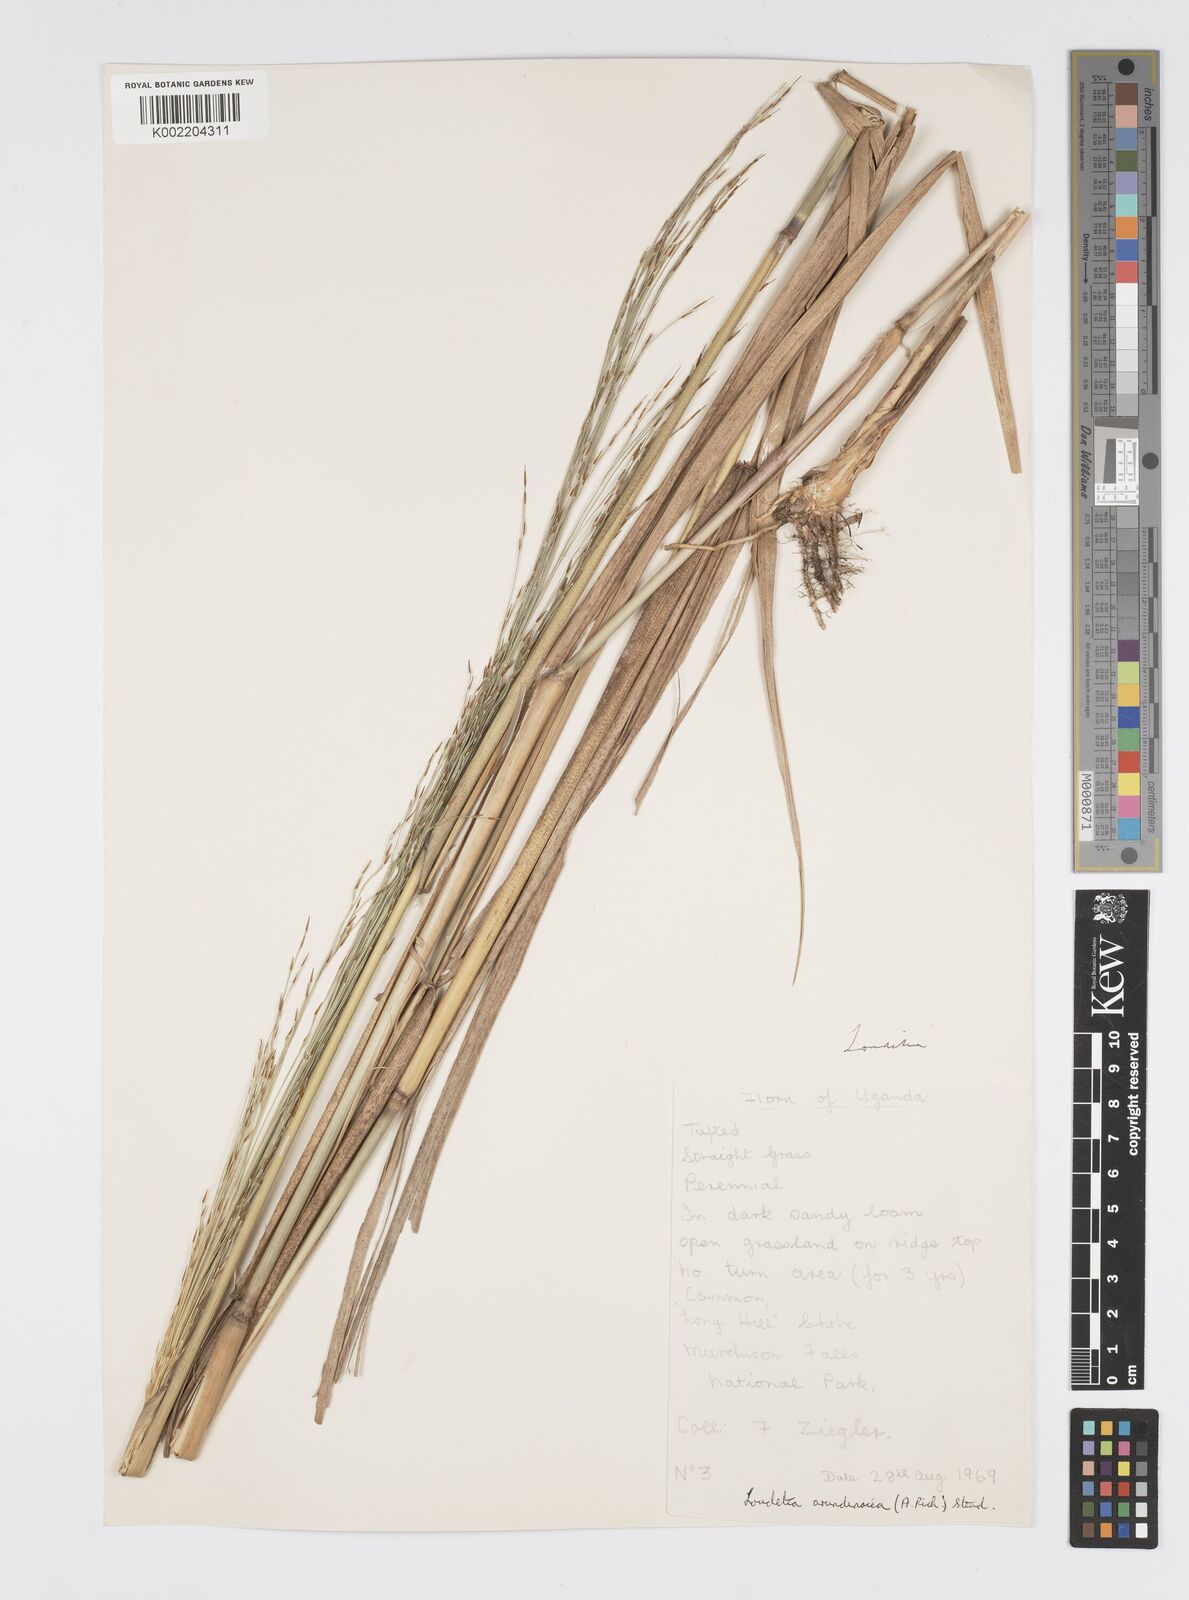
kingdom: Plantae
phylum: Tracheophyta
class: Liliopsida
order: Poales
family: Poaceae
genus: Loudetia
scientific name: Loudetia arundinacea
